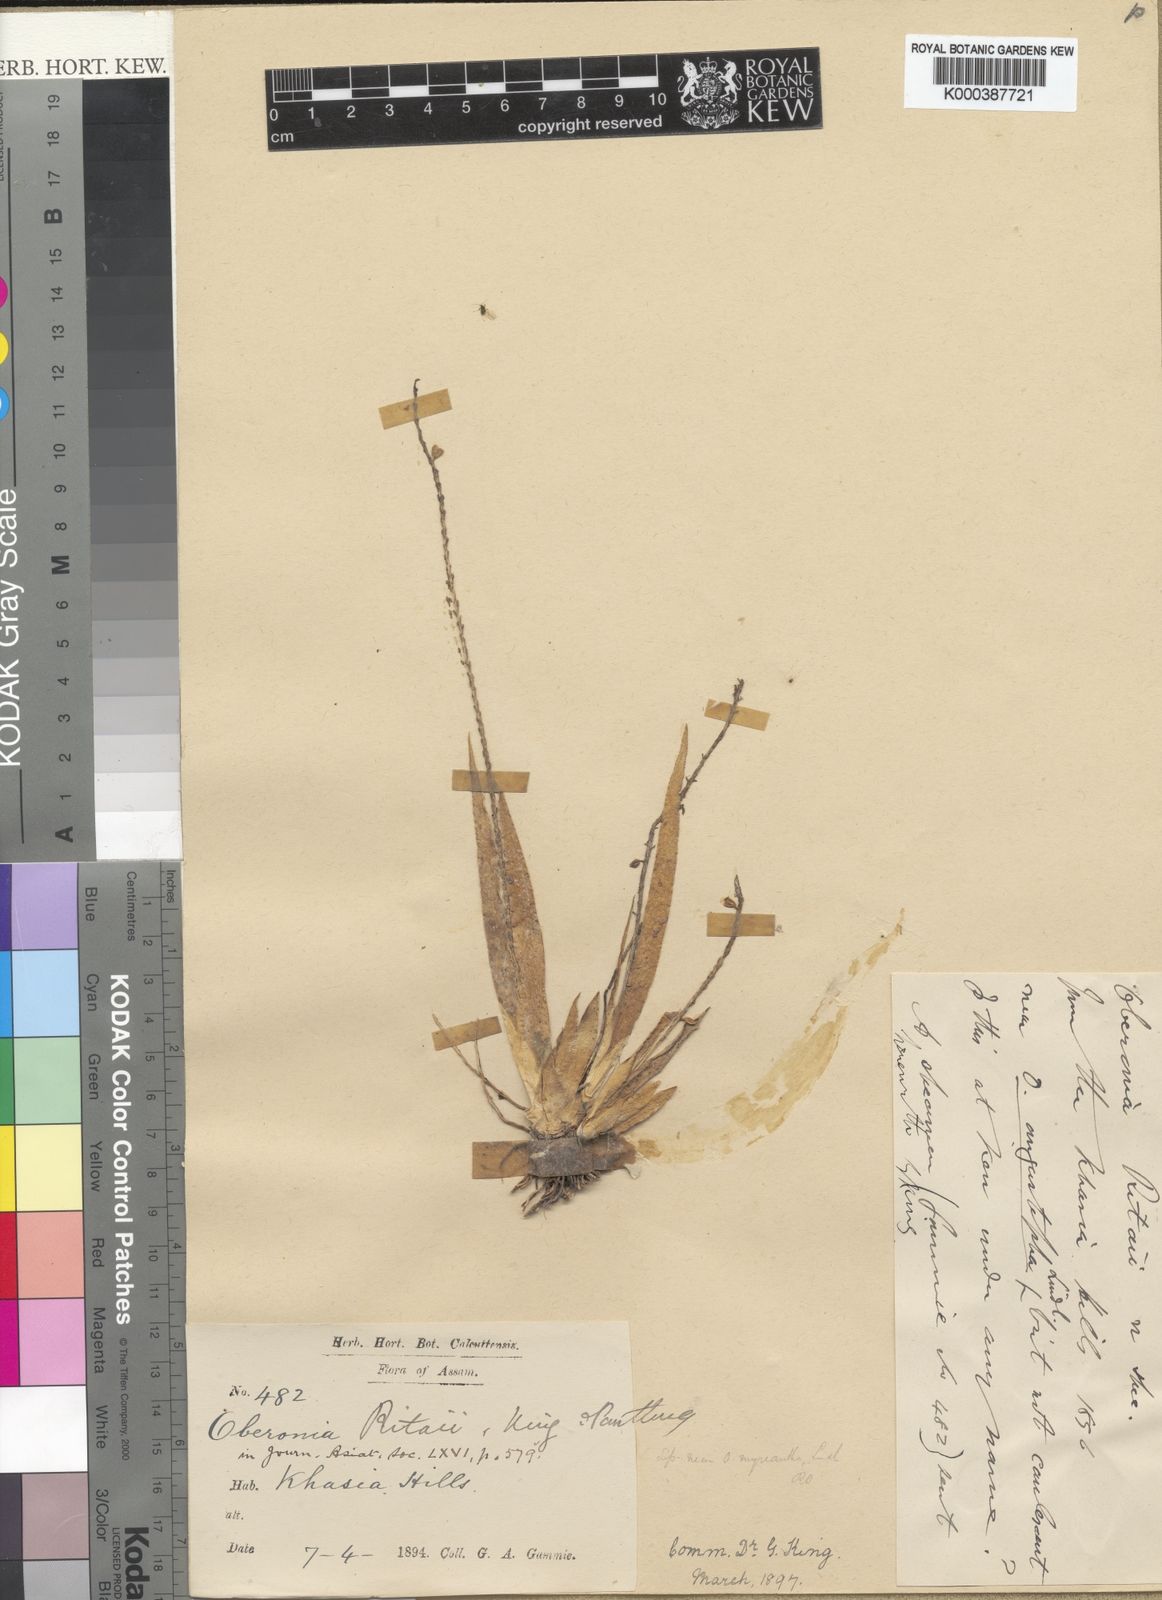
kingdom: Plantae
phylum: Tracheophyta
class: Liliopsida
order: Asparagales
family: Orchidaceae
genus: Oberonia
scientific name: Oberonia ritaii
